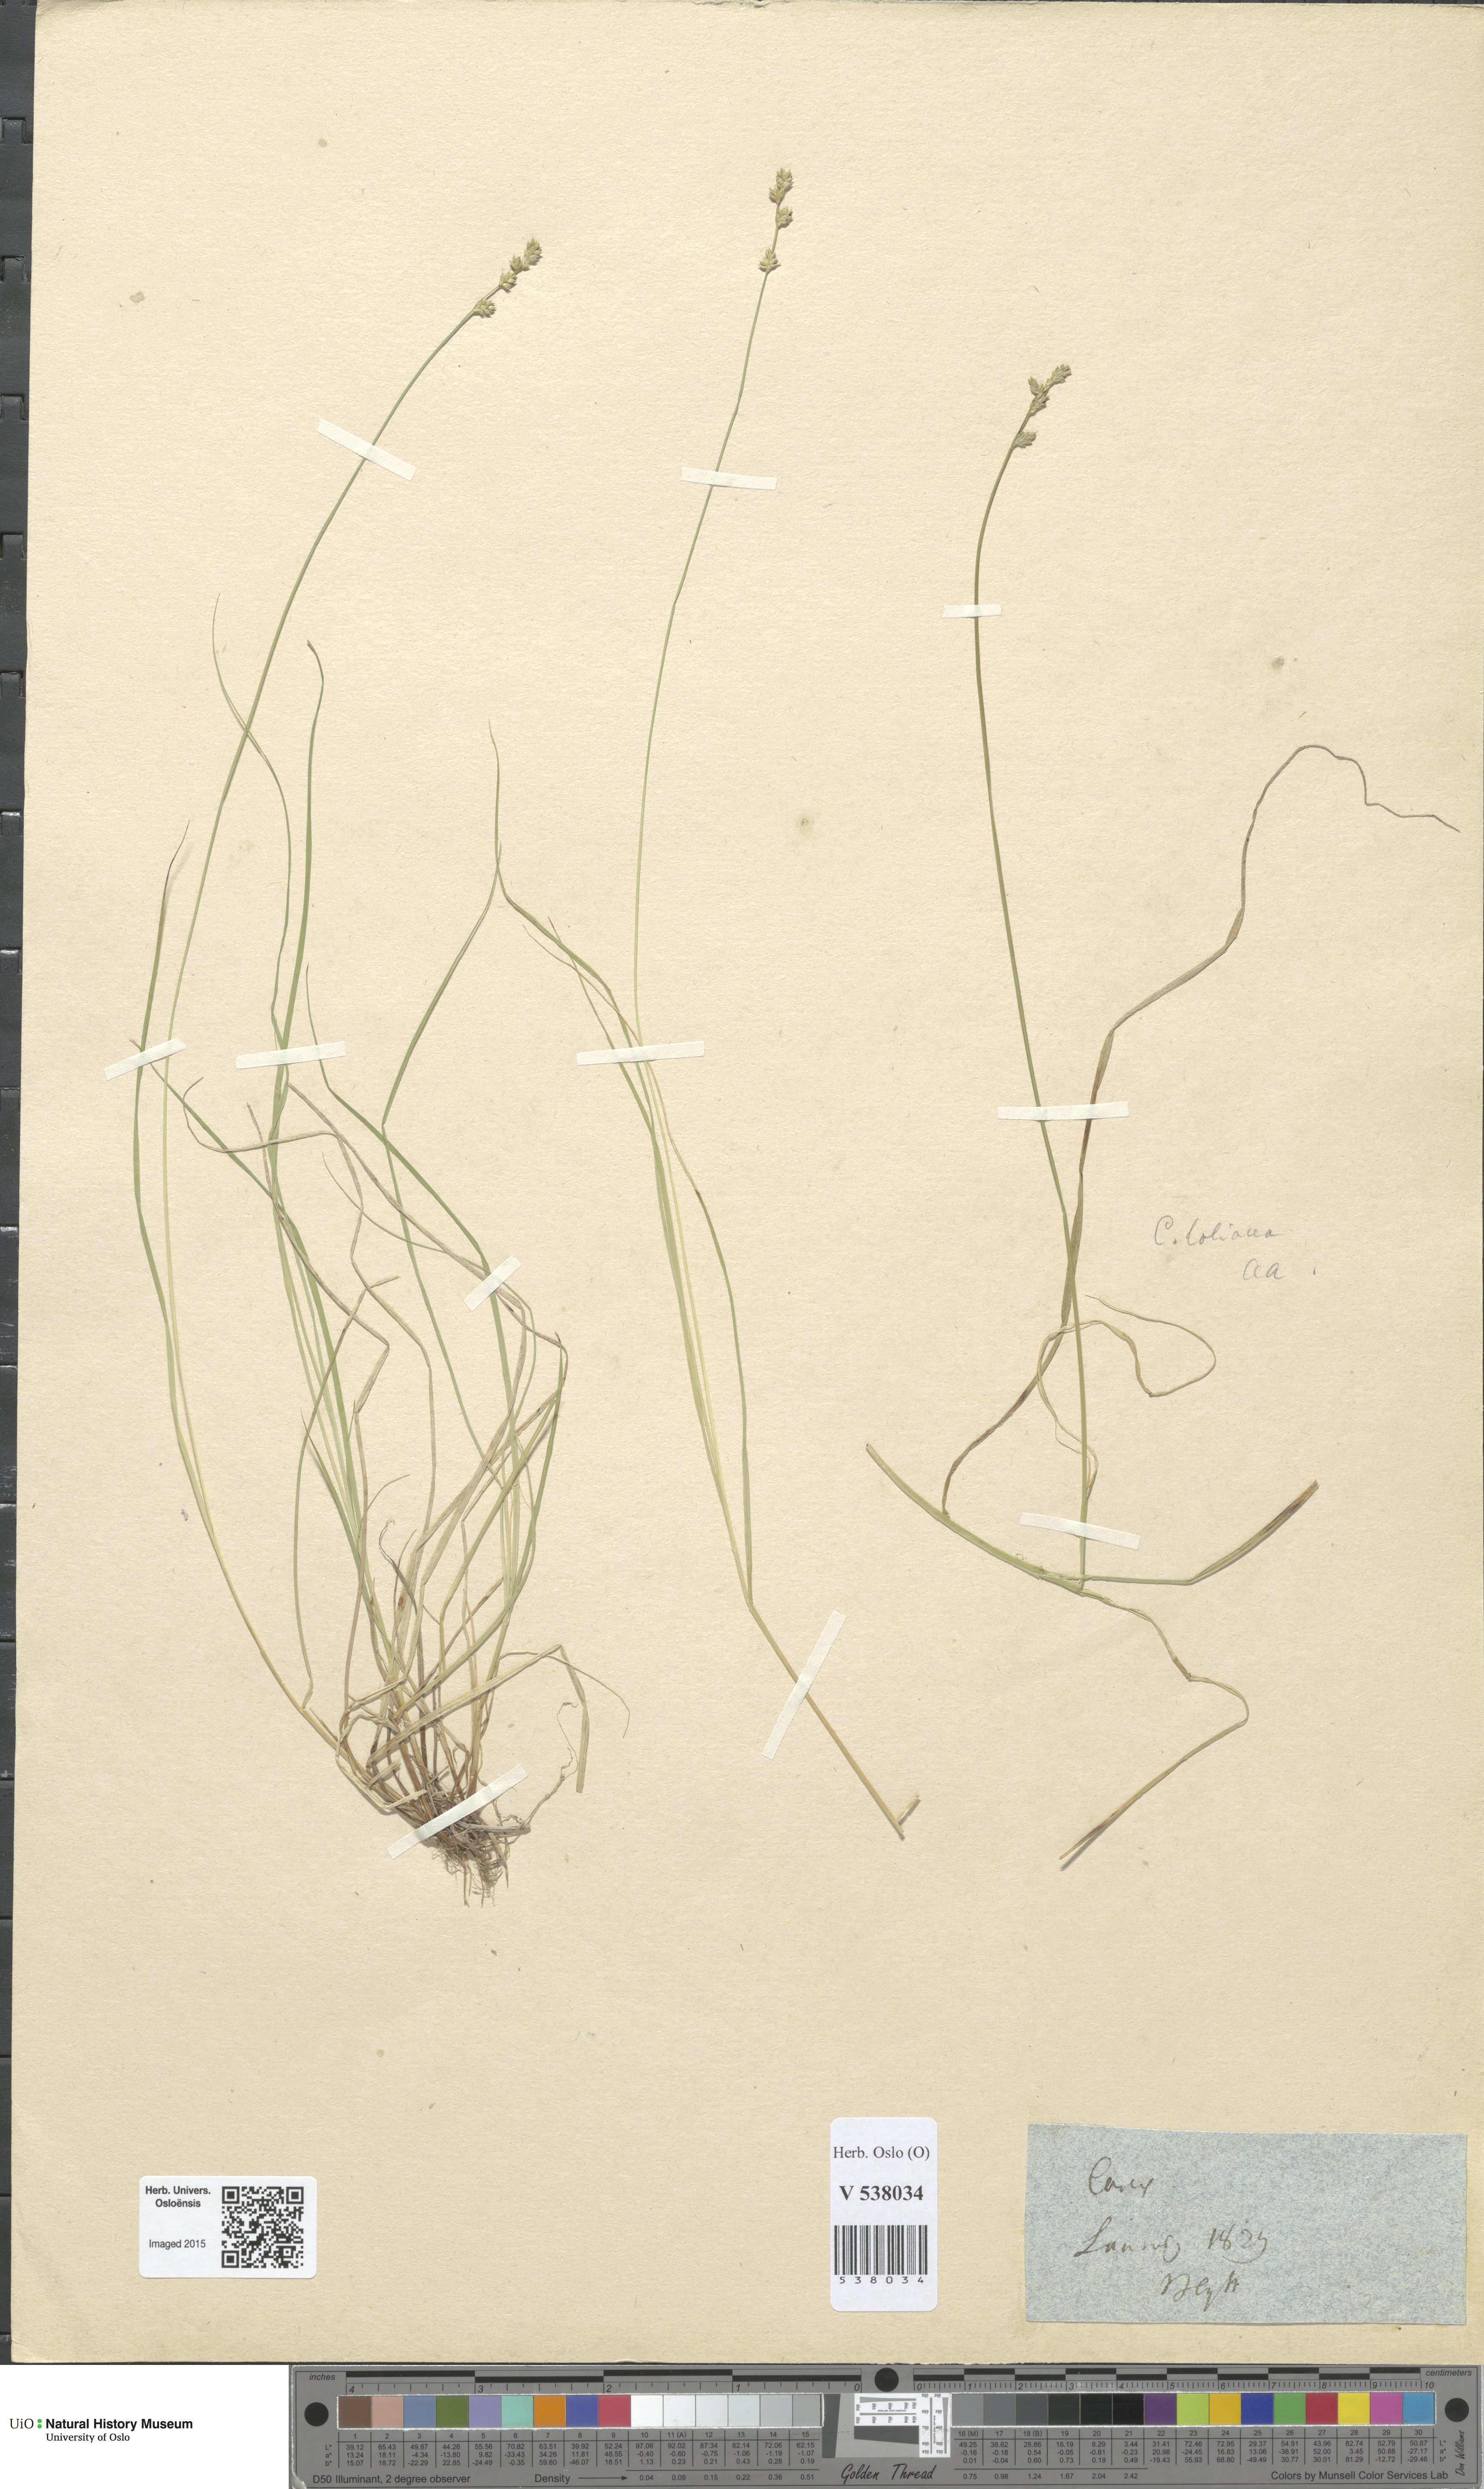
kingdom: Plantae
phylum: Tracheophyta
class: Liliopsida
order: Poales
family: Cyperaceae
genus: Carex
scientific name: Carex canescens
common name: White sedge
